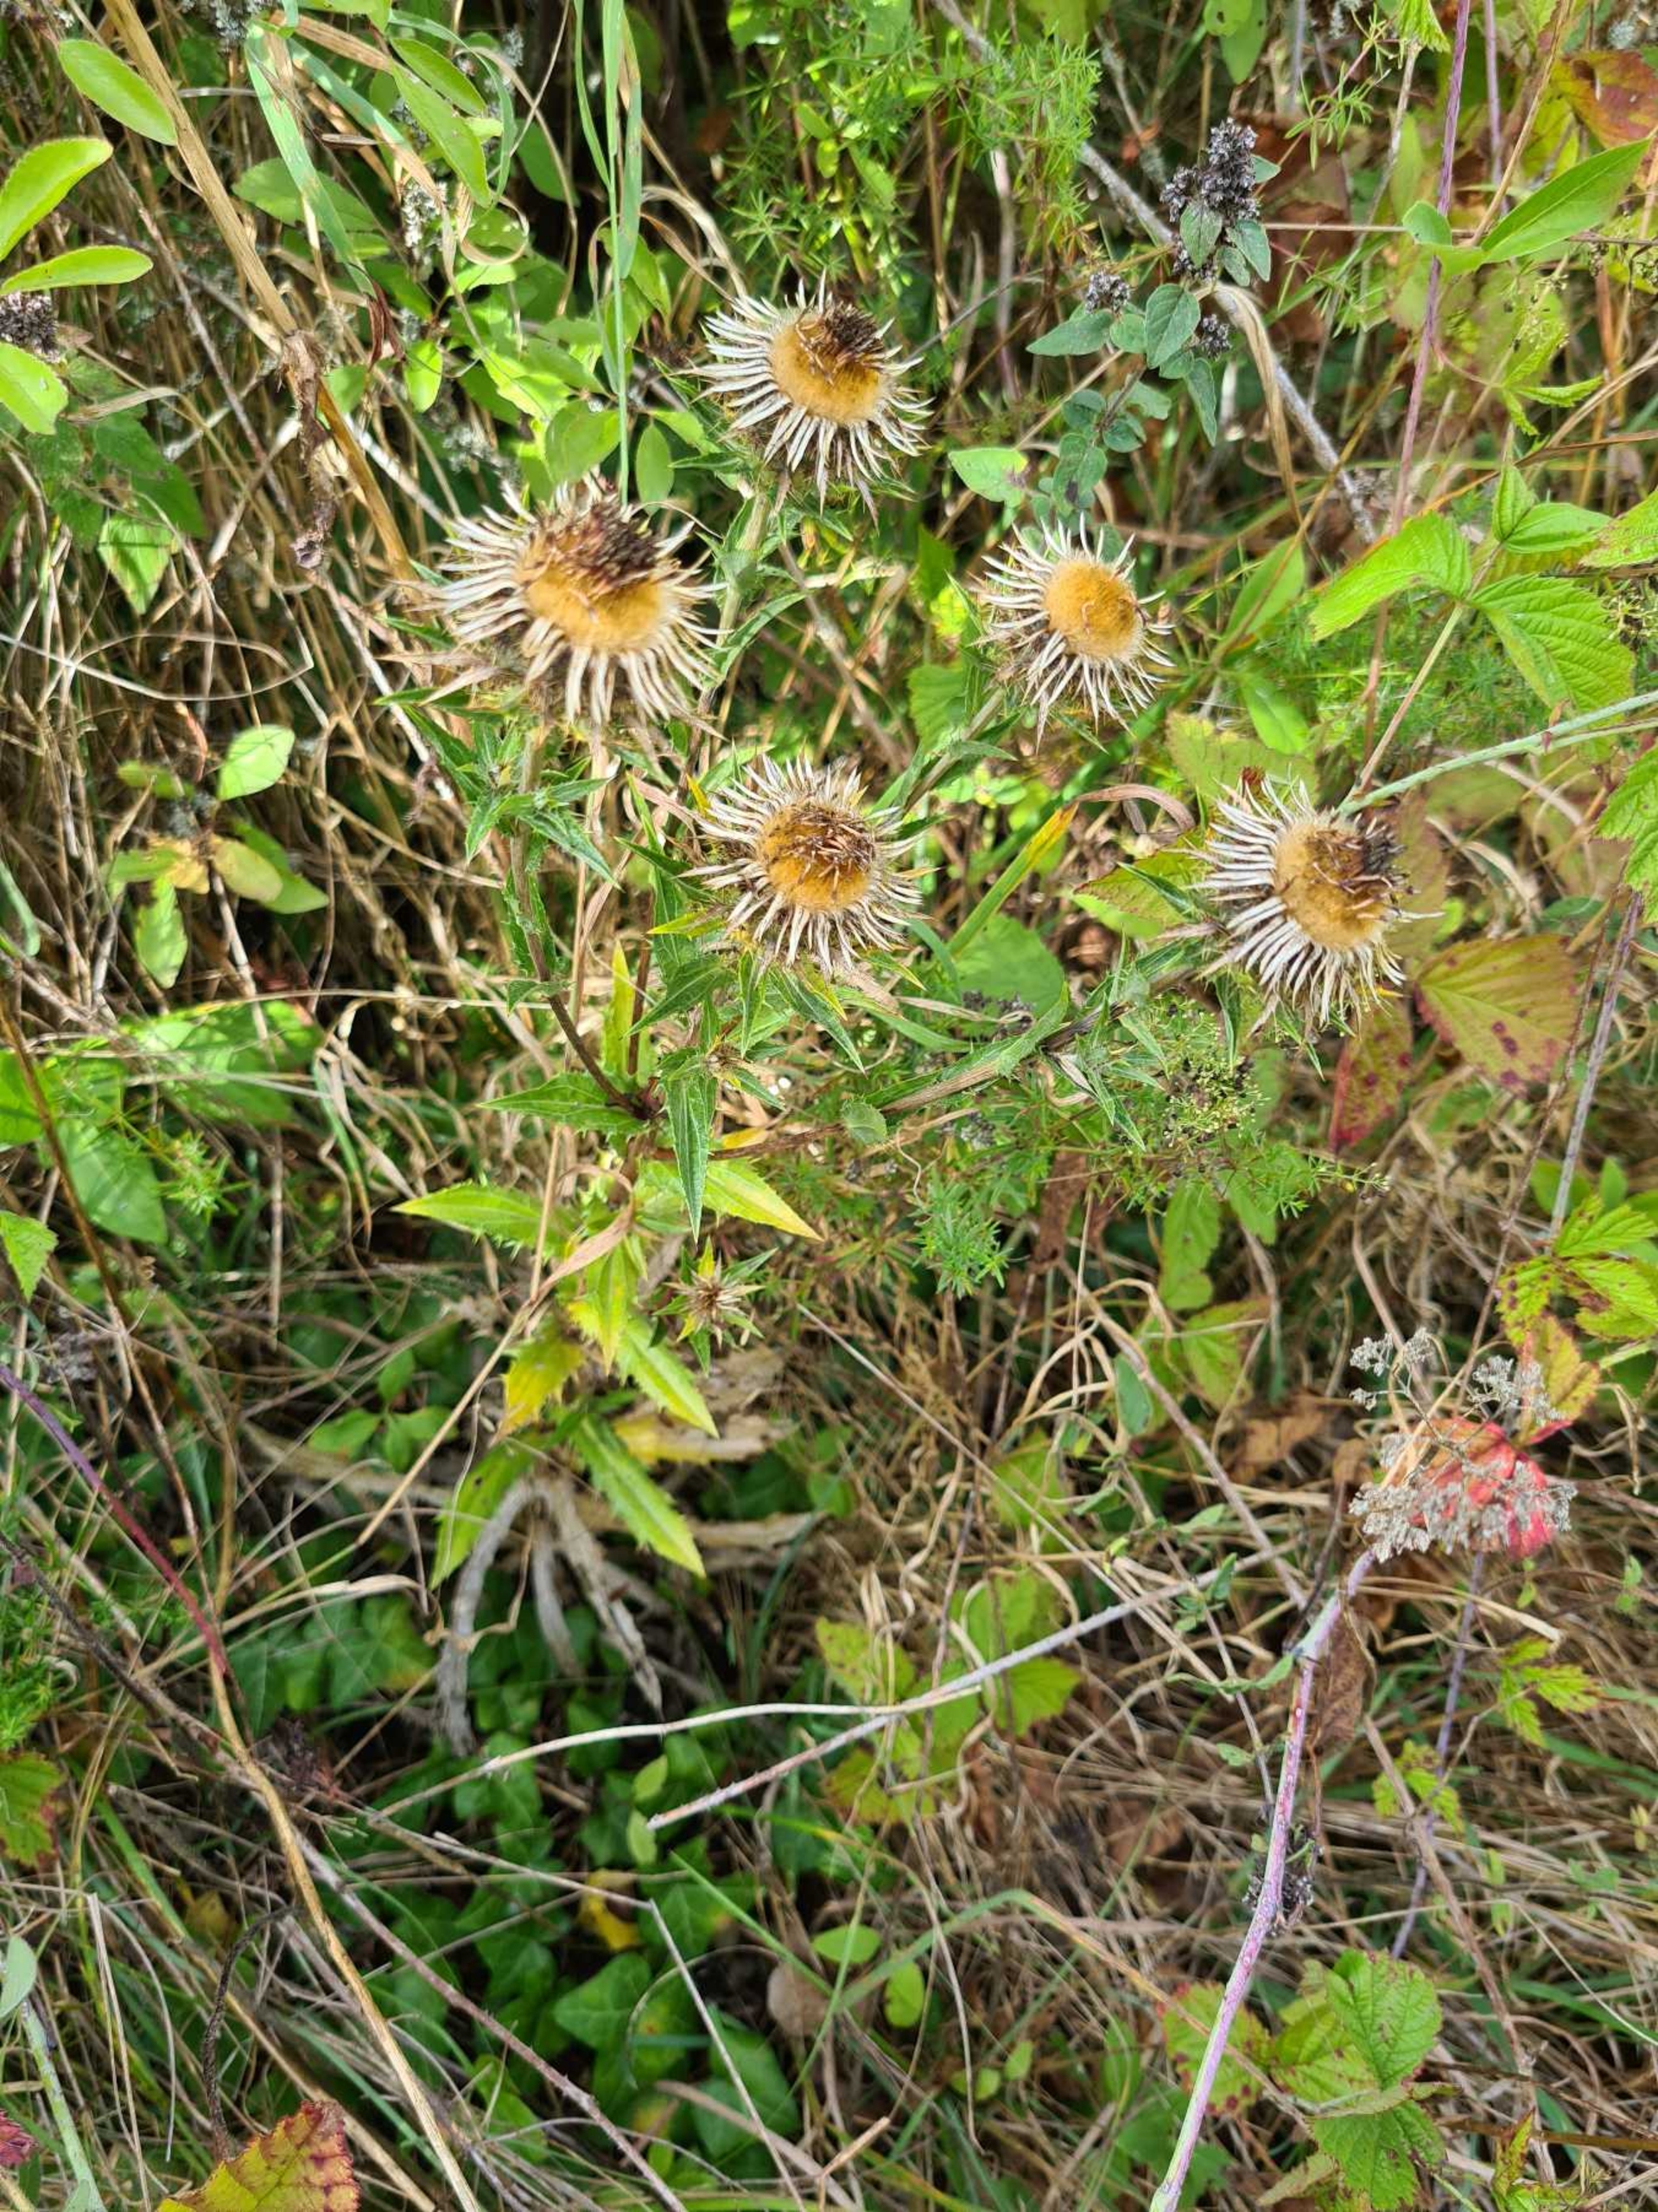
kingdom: Plantae
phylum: Tracheophyta
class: Magnoliopsida
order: Asterales
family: Asteraceae
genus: Carlina
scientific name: Carlina vulgaris
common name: Bakketidsel
